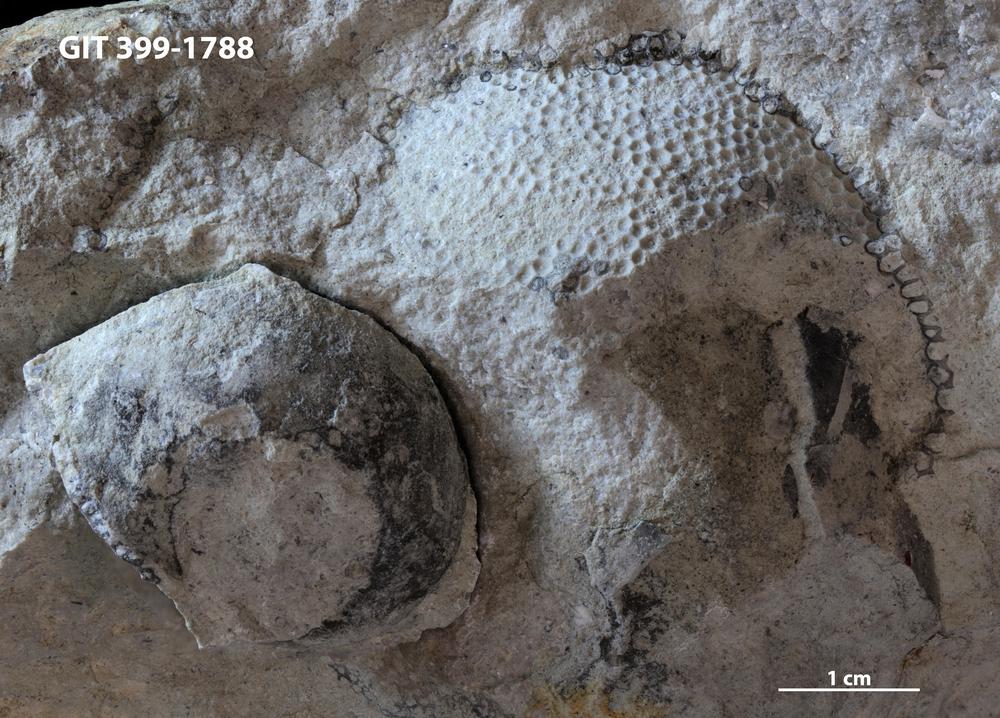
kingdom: Plantae
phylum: Chlorophyta
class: Ulvophyceae
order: Cyclocrinales
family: Cyclocrinaceae
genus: Mastopora
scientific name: Mastopora concava
